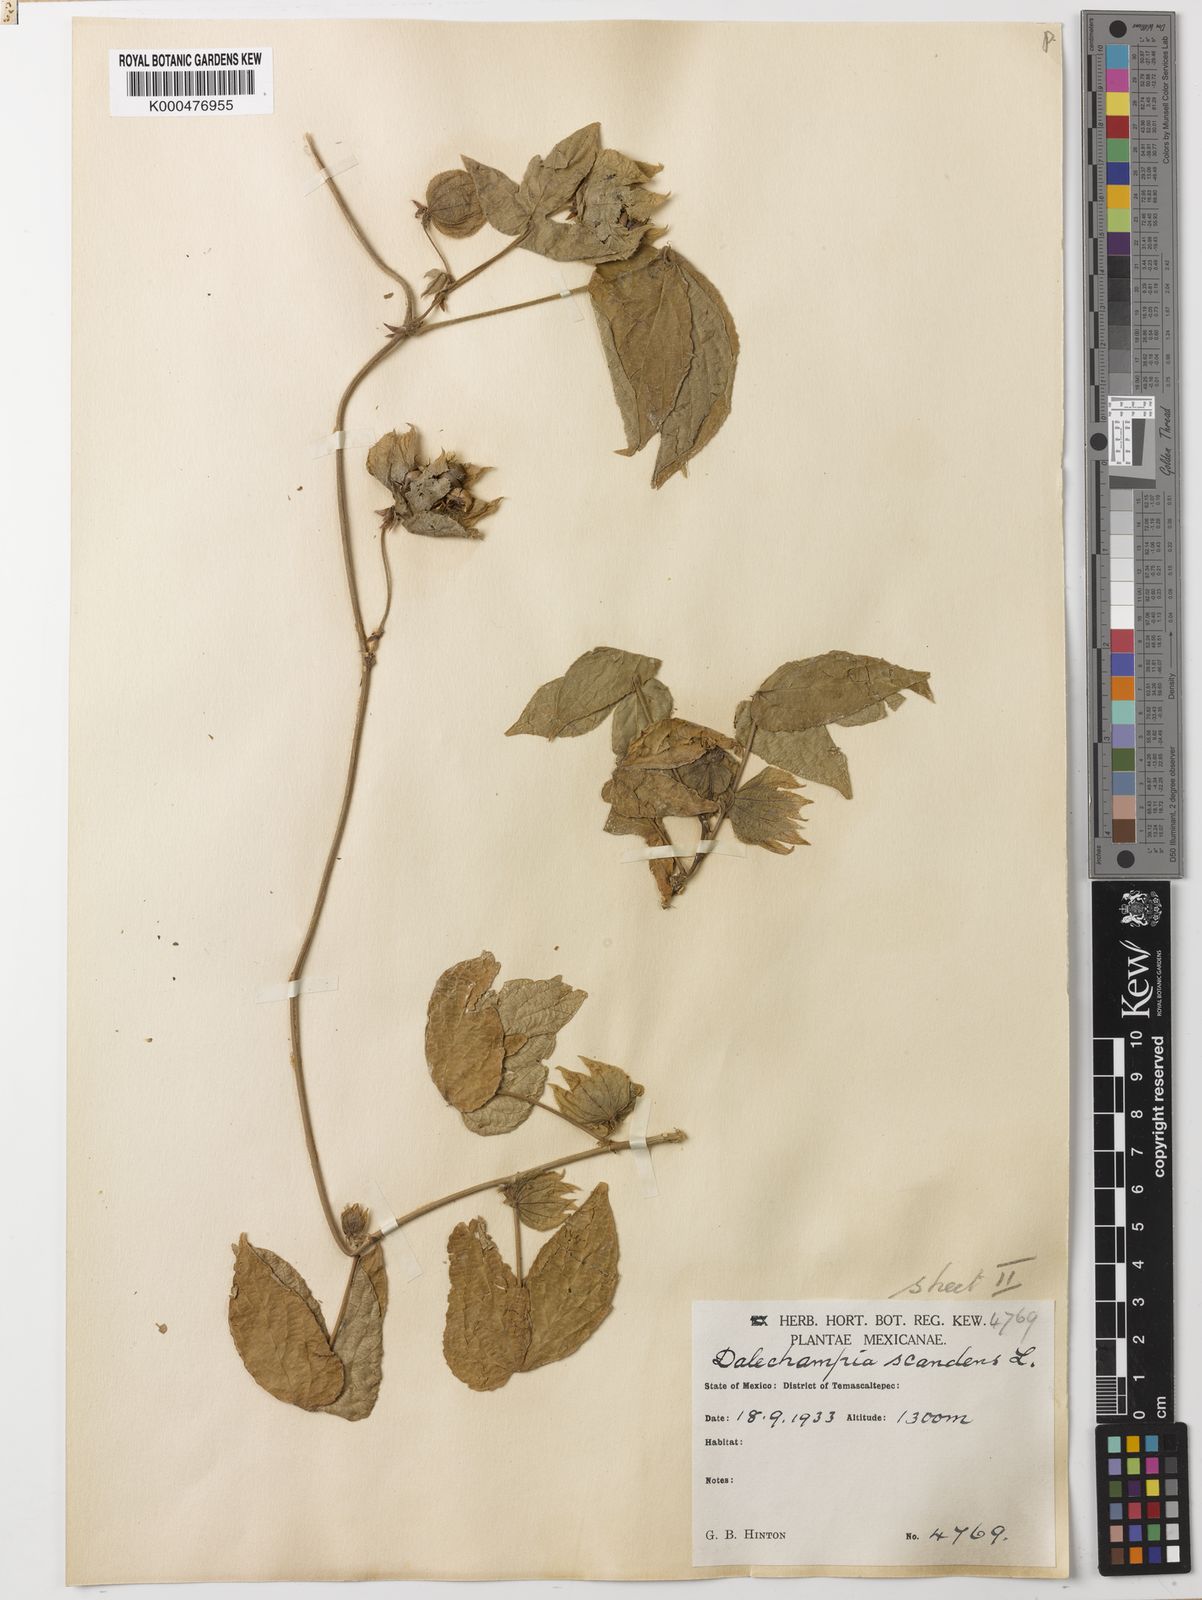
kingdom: Plantae
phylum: Tracheophyta
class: Magnoliopsida
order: Malpighiales
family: Euphorbiaceae
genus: Dalechampia
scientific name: Dalechampia scandens
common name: Spurgecreeper
